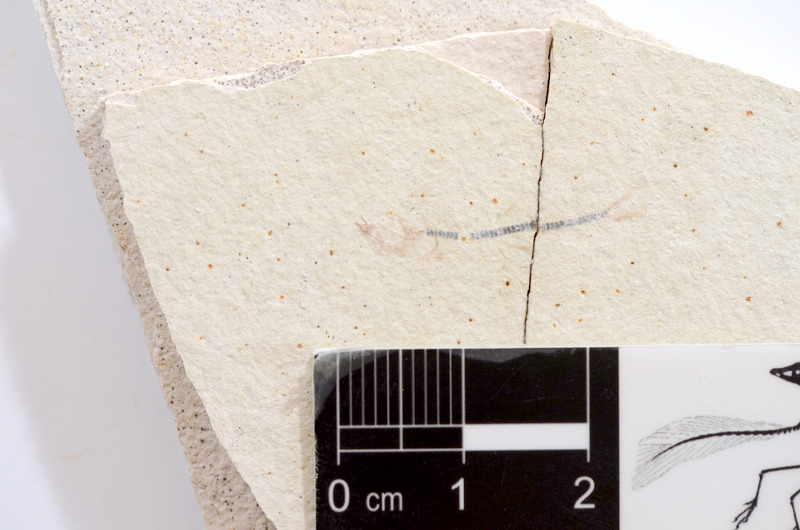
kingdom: Animalia
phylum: Chordata
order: Salmoniformes
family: Orthogonikleithridae
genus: Orthogonikleithrus
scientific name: Orthogonikleithrus hoelli
